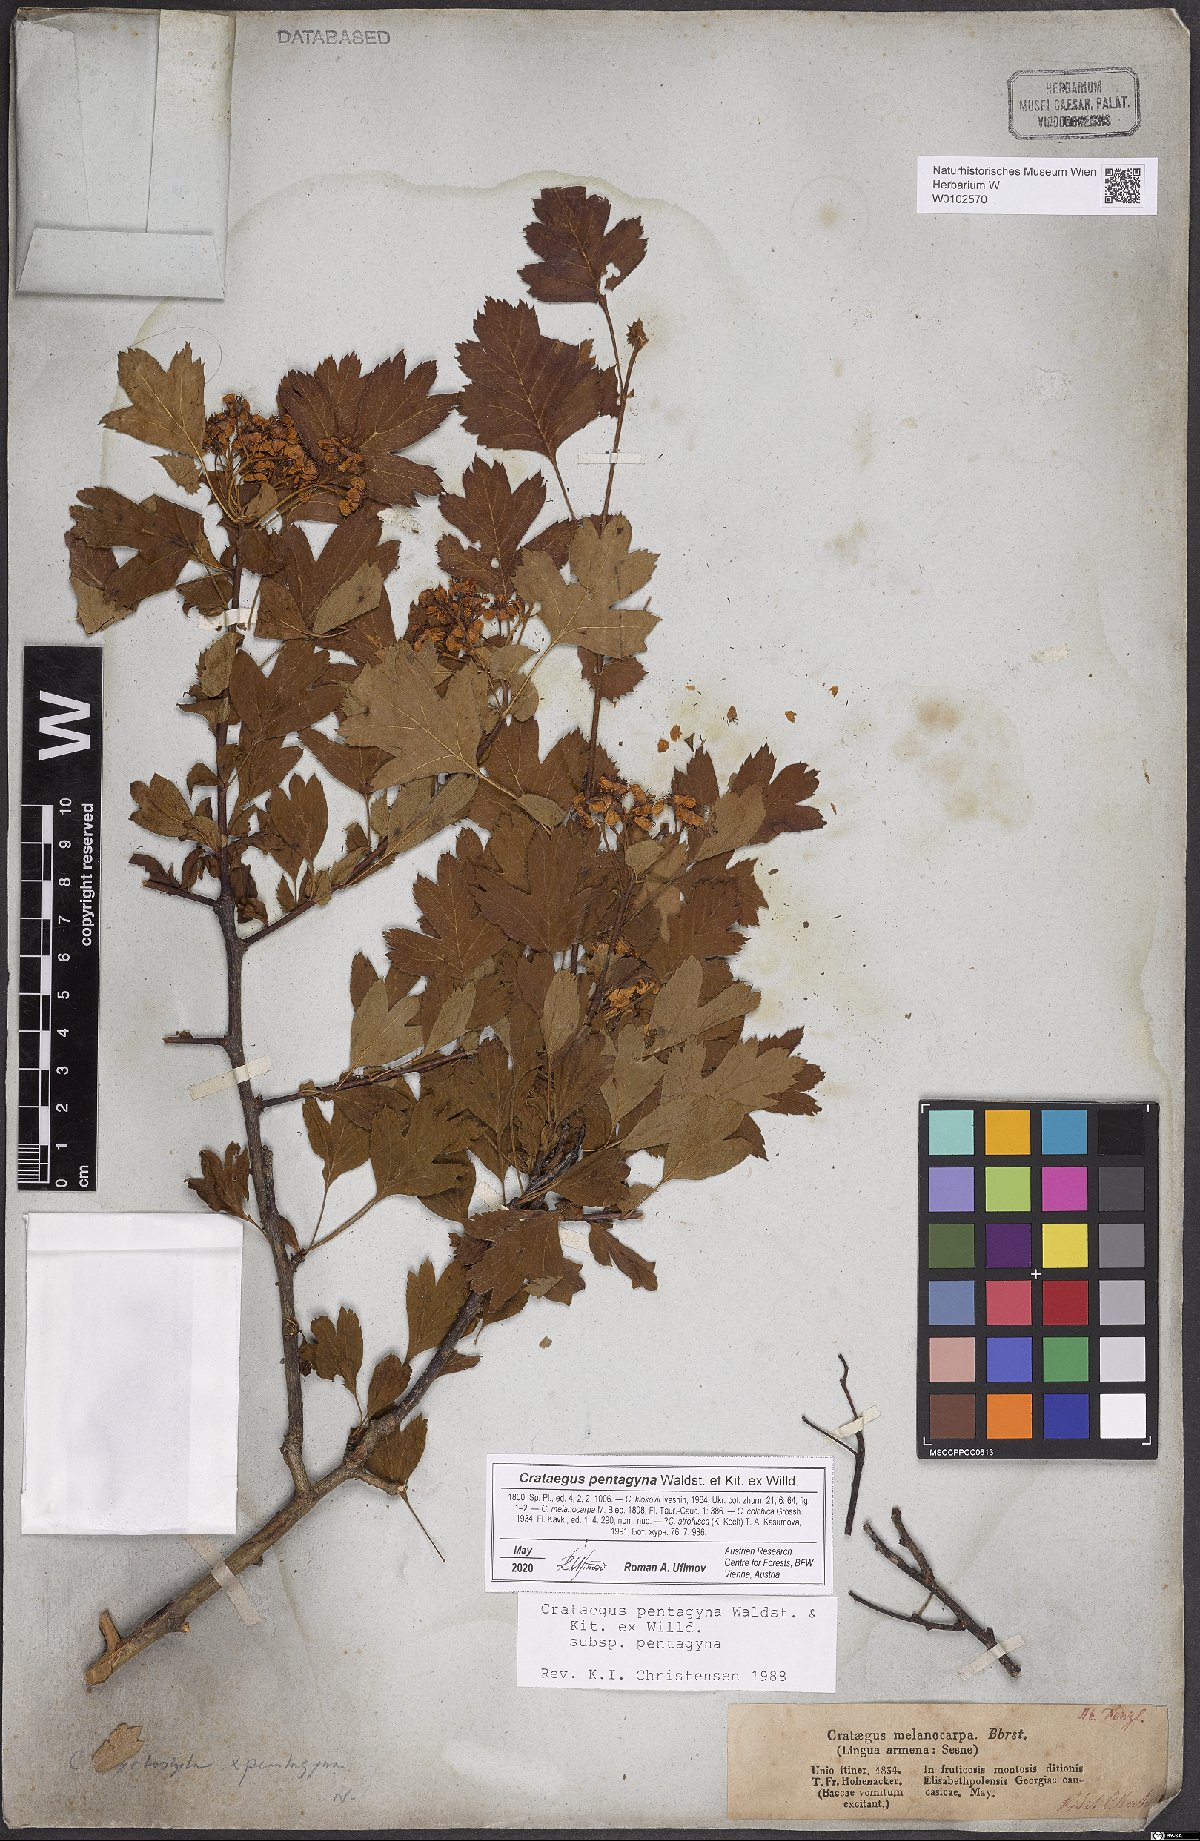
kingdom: Plantae
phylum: Tracheophyta
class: Magnoliopsida
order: Rosales
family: Rosaceae
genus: Crataegus
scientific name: Crataegus pentagyna
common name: Small-flowered black hawthorn
